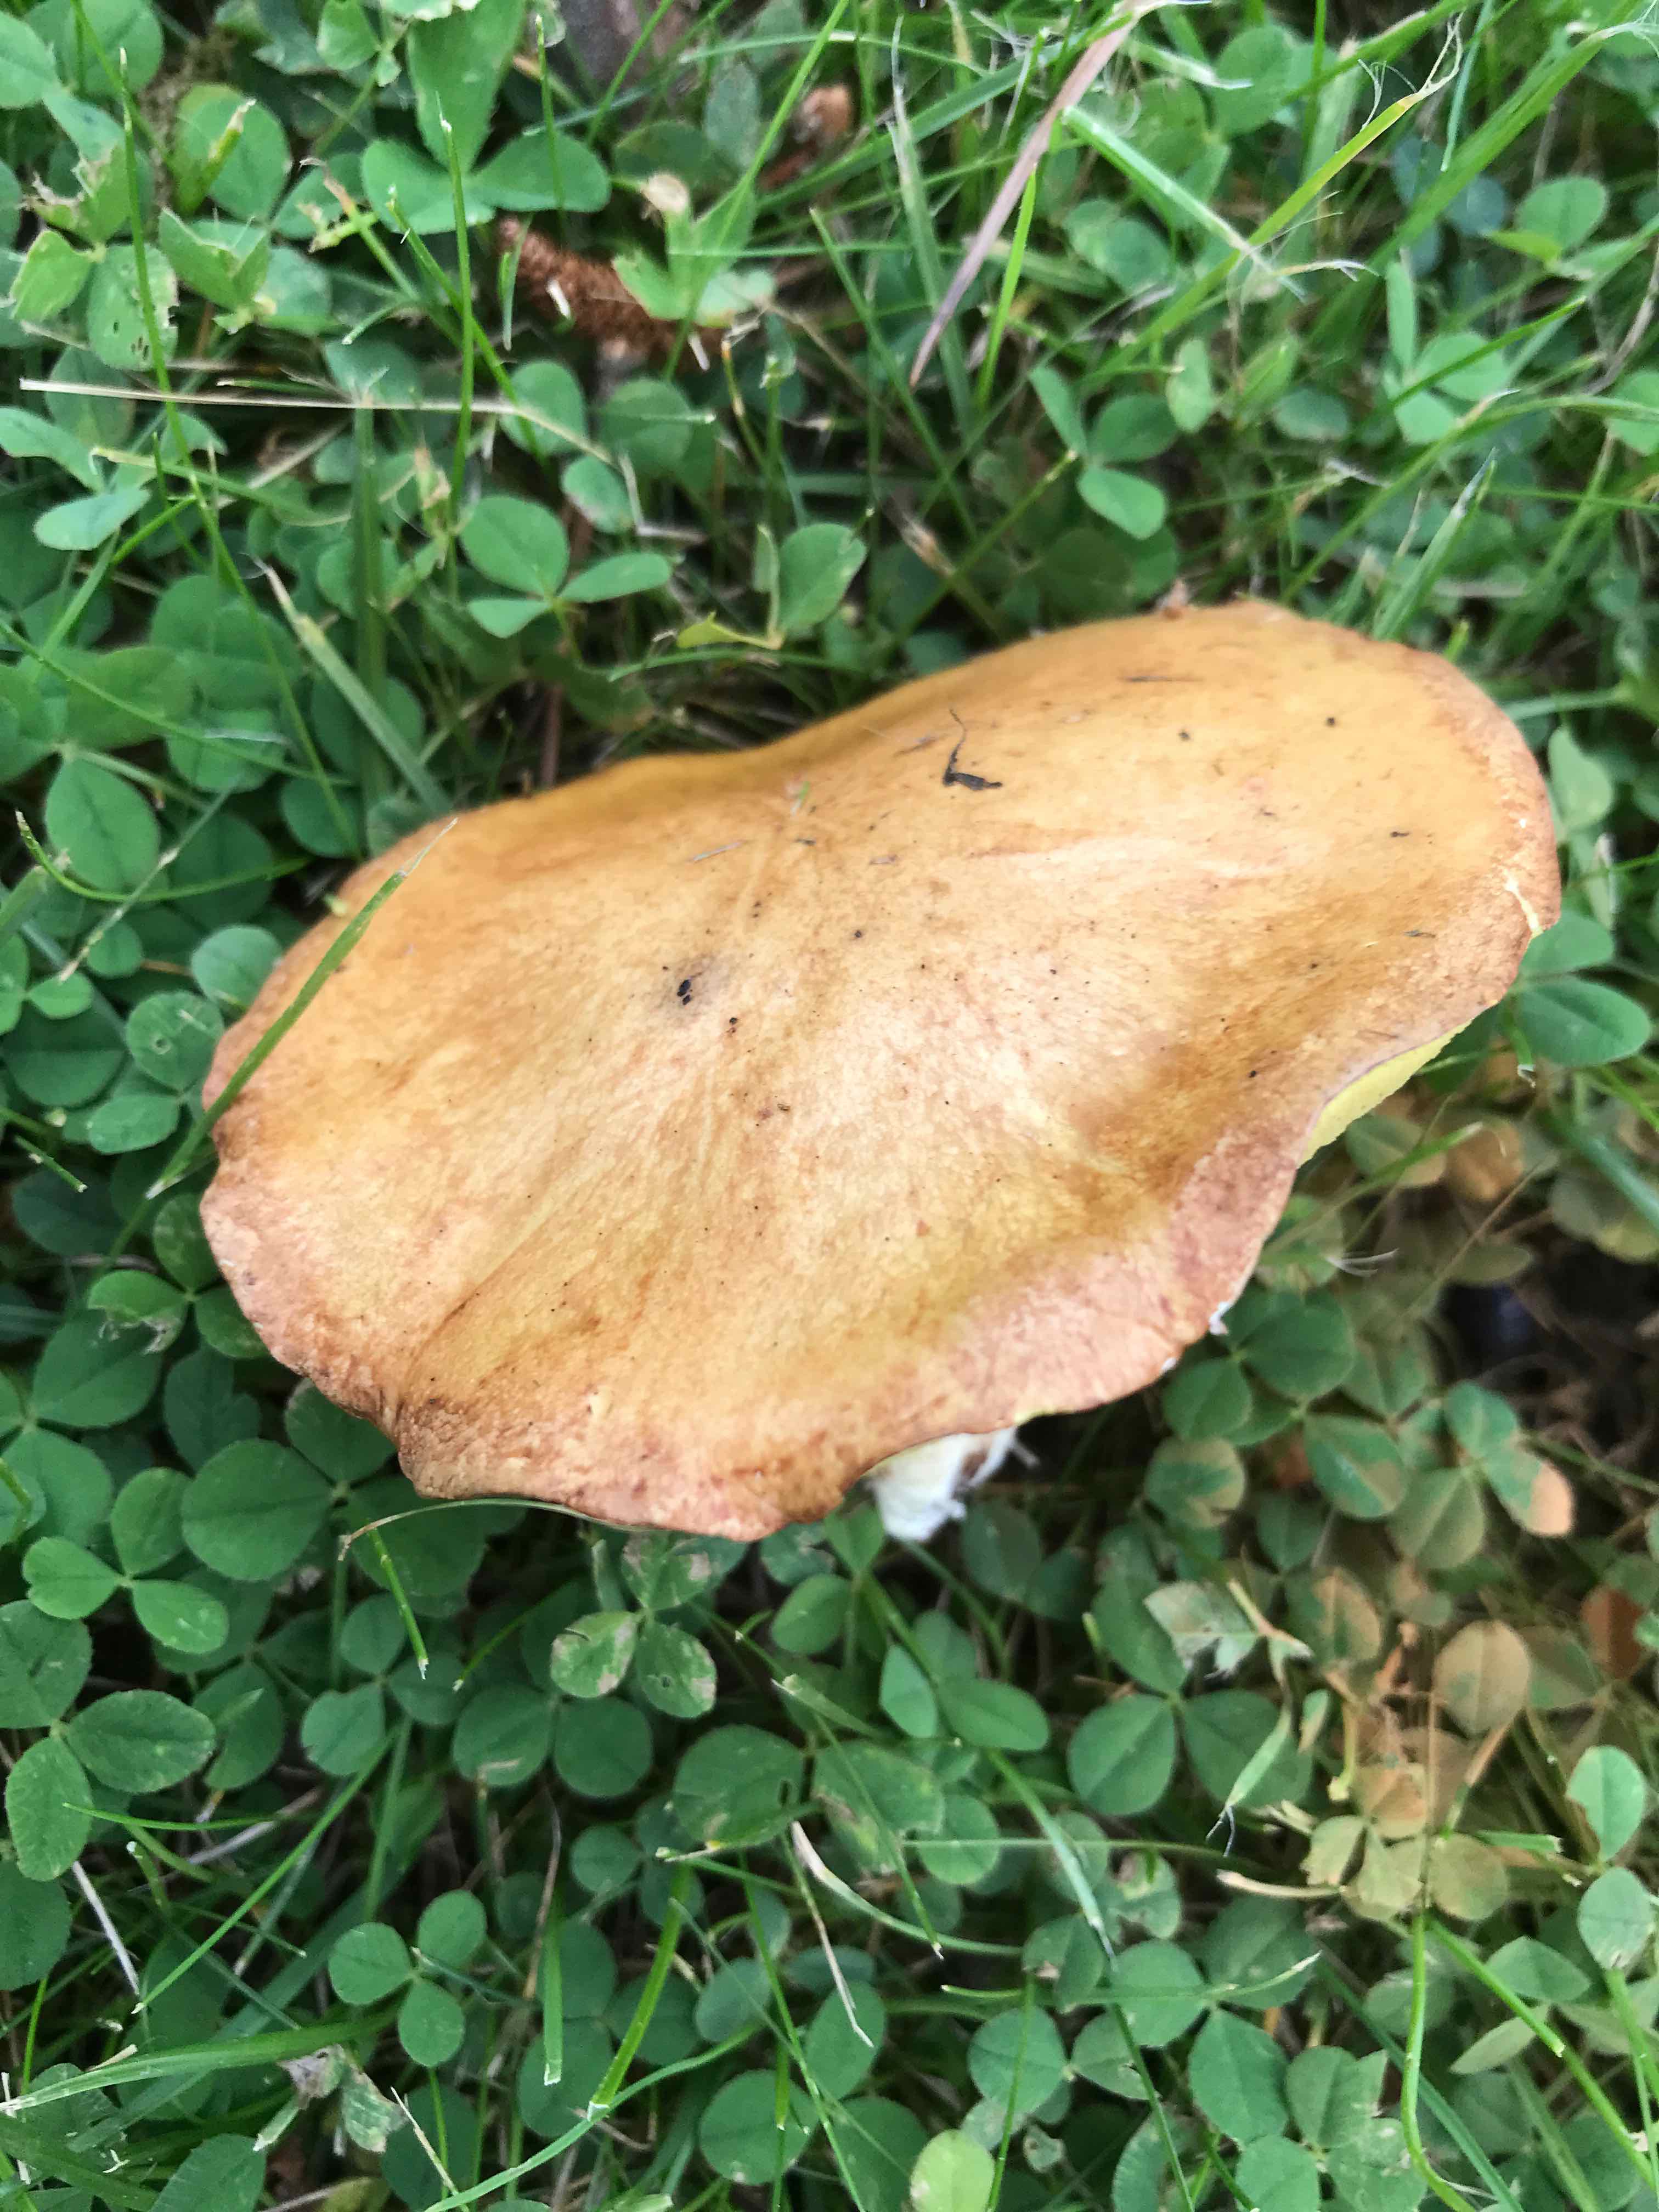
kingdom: Fungi
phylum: Basidiomycota
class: Agaricomycetes
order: Boletales
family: Suillaceae
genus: Suillus
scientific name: Suillus granulatus
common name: kornet slimrørhat
